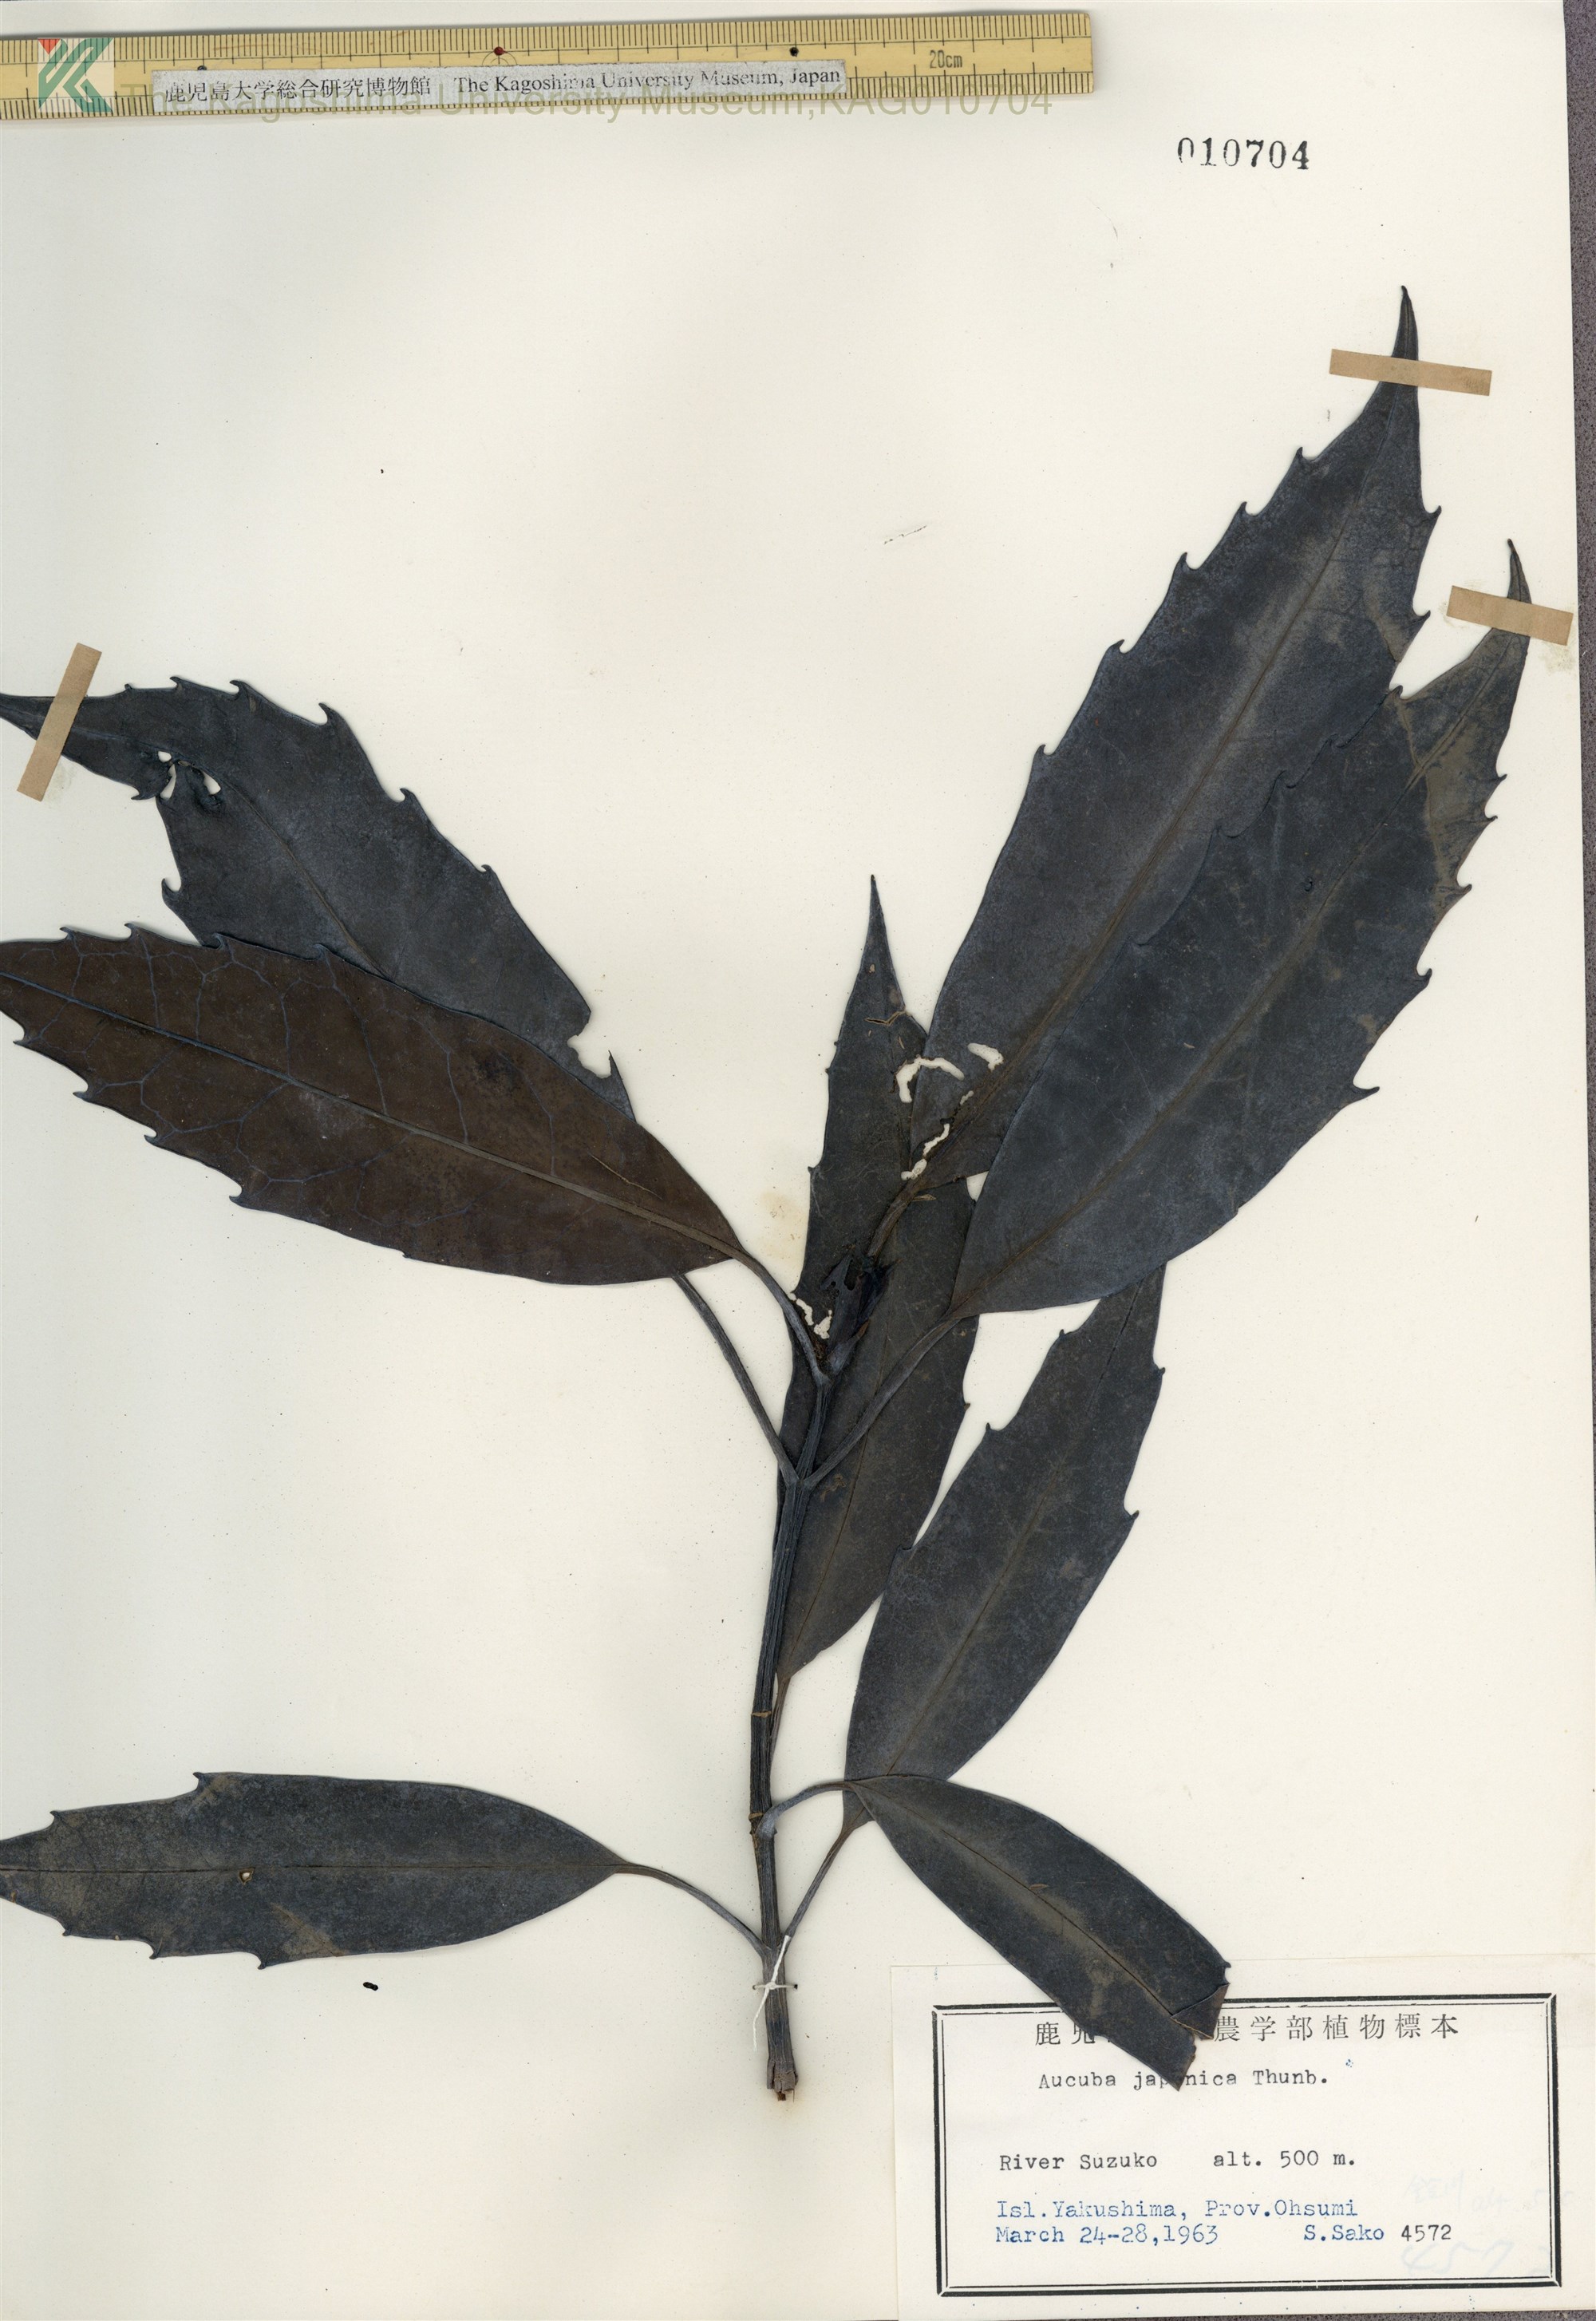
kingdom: Plantae
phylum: Tracheophyta
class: Magnoliopsida
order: Garryales
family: Garryaceae
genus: Aucuba
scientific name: Aucuba japonica
